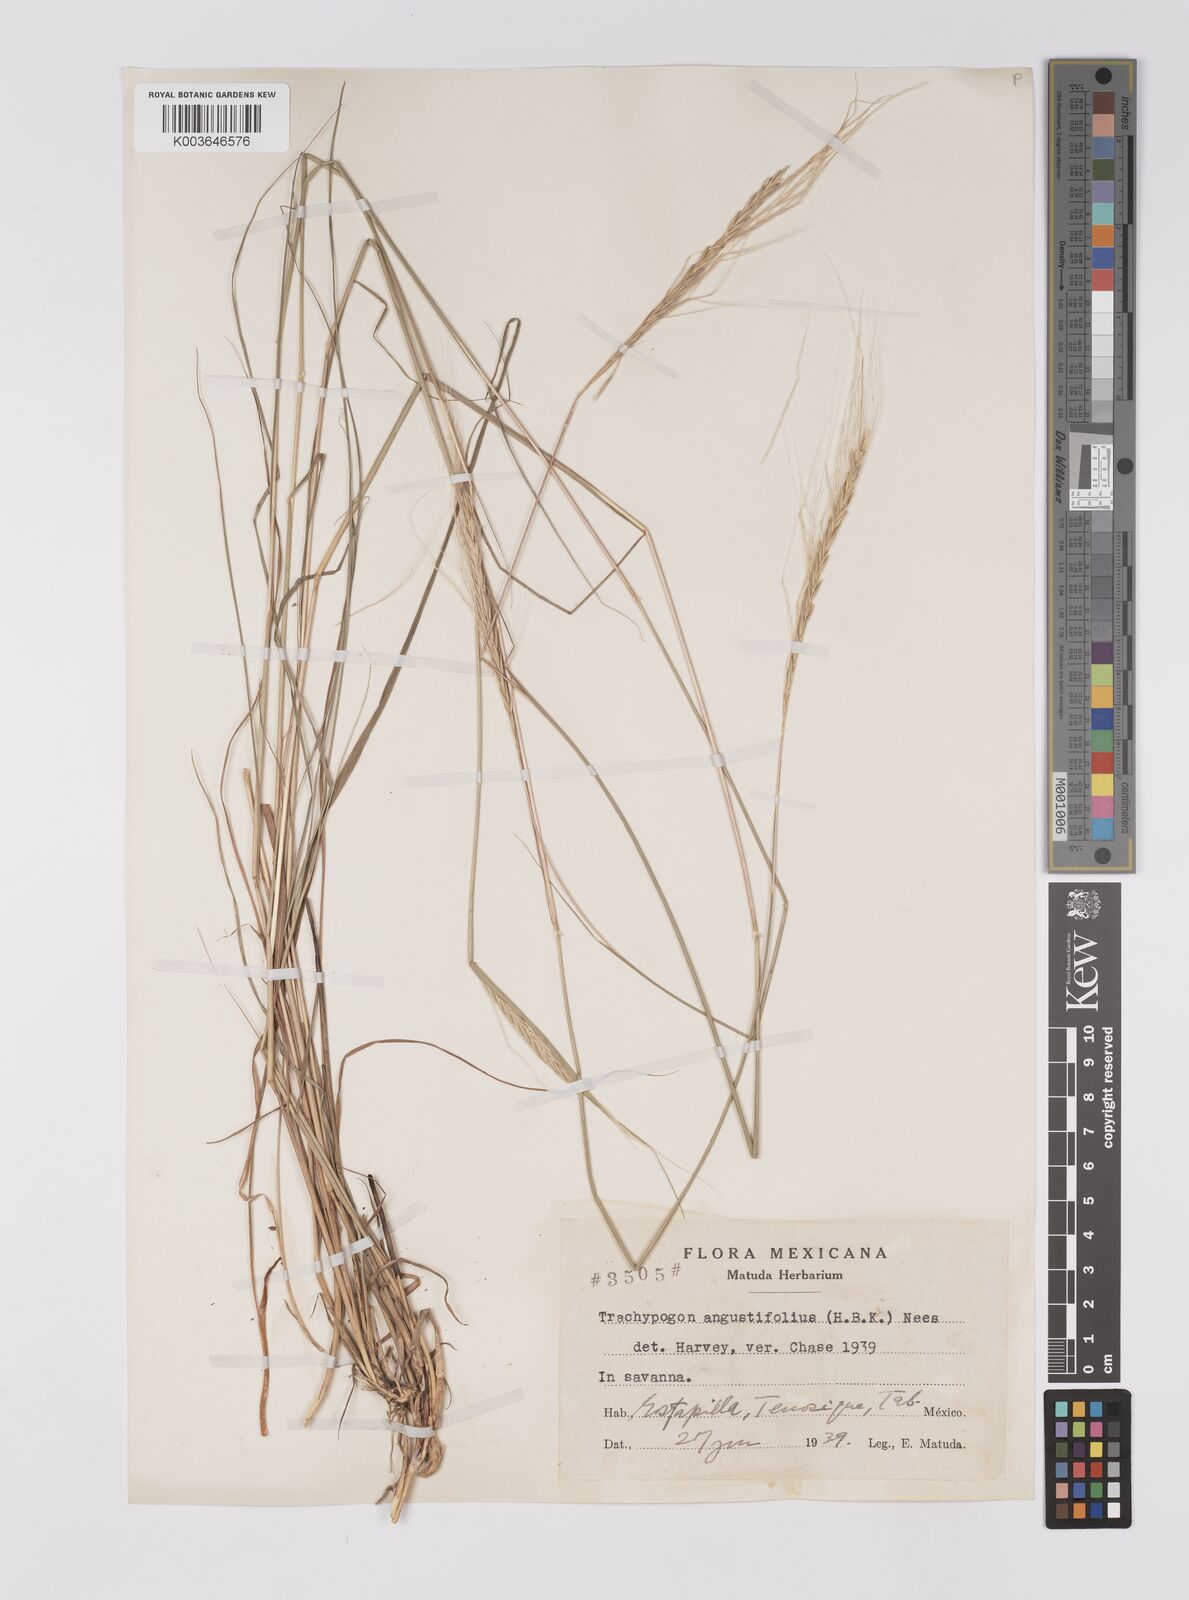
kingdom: Plantae
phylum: Tracheophyta
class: Liliopsida
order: Poales
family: Poaceae
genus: Trachypogon
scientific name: Trachypogon spicatus
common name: Crinkle-awn
